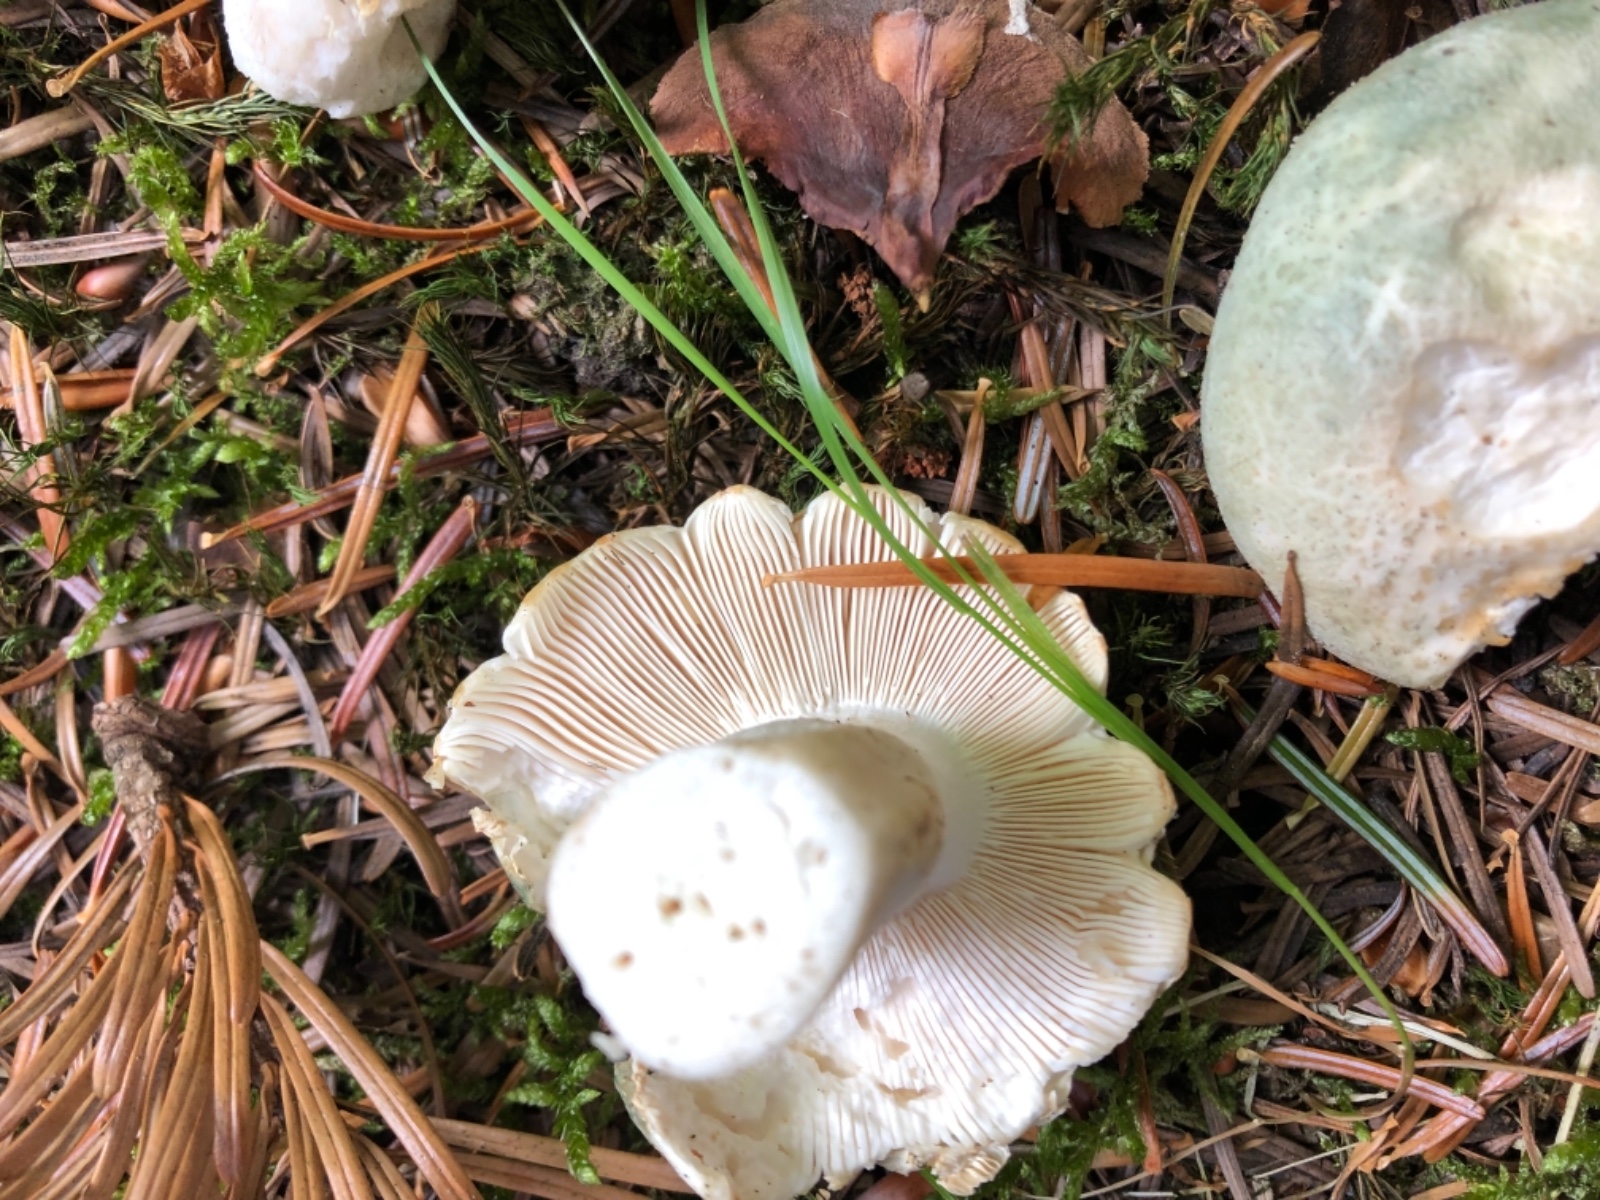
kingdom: Fungi
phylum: Basidiomycota
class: Agaricomycetes
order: Russulales
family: Russulaceae
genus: Russula
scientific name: Russula virescens
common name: spanskgrøn skørhat
